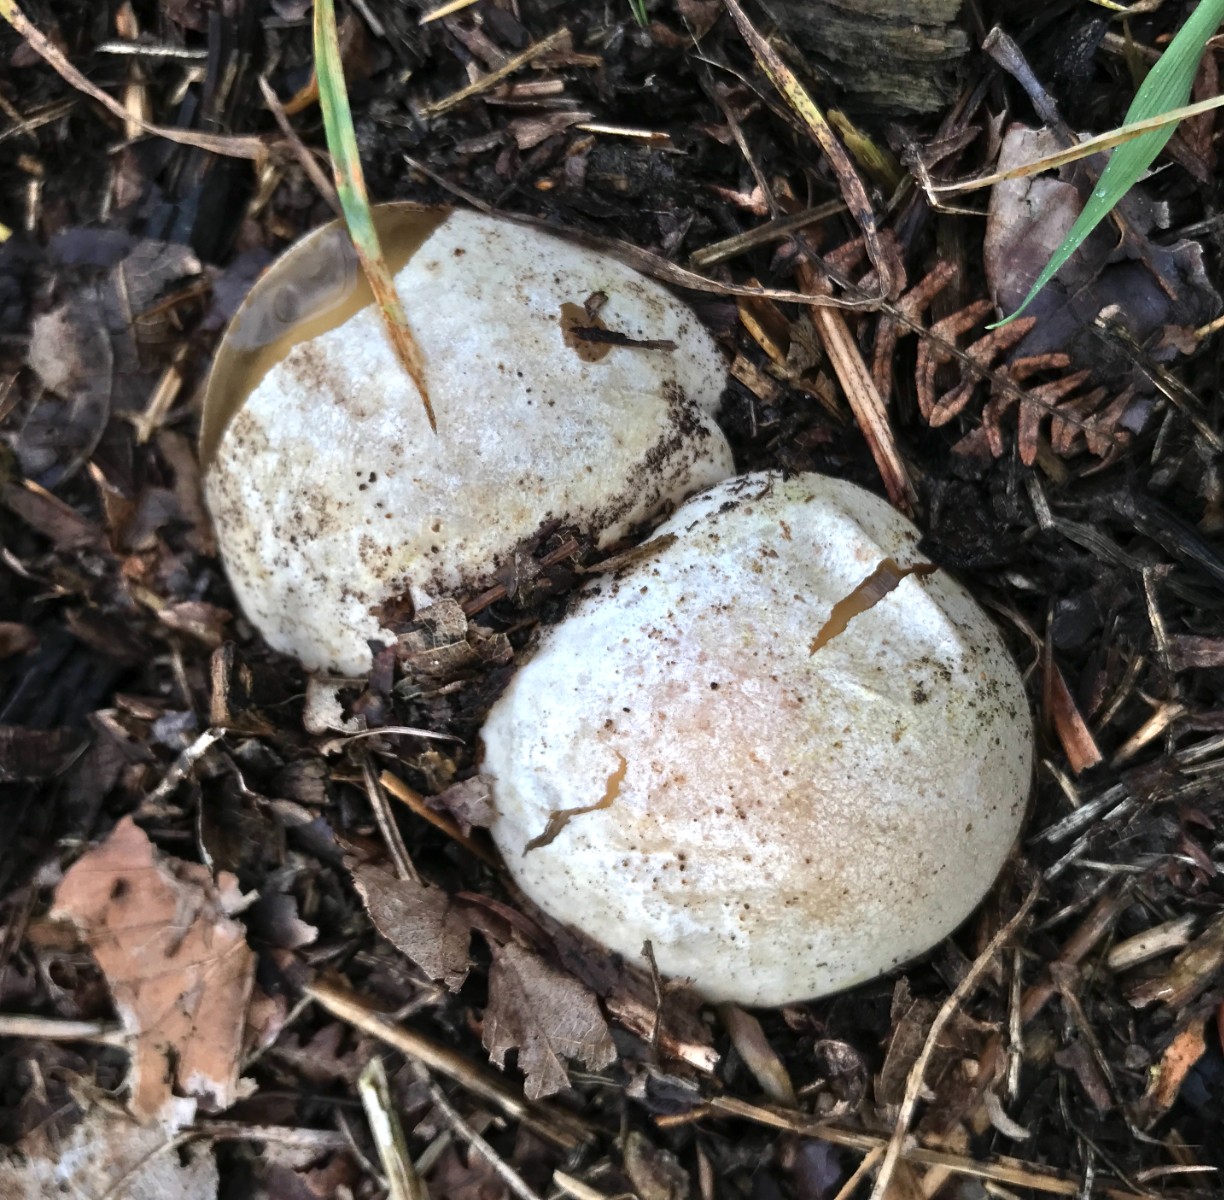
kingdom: Fungi
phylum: Basidiomycota
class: Agaricomycetes
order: Phallales
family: Phallaceae
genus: Phallus
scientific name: Phallus impudicus
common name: almindelig stinksvamp
